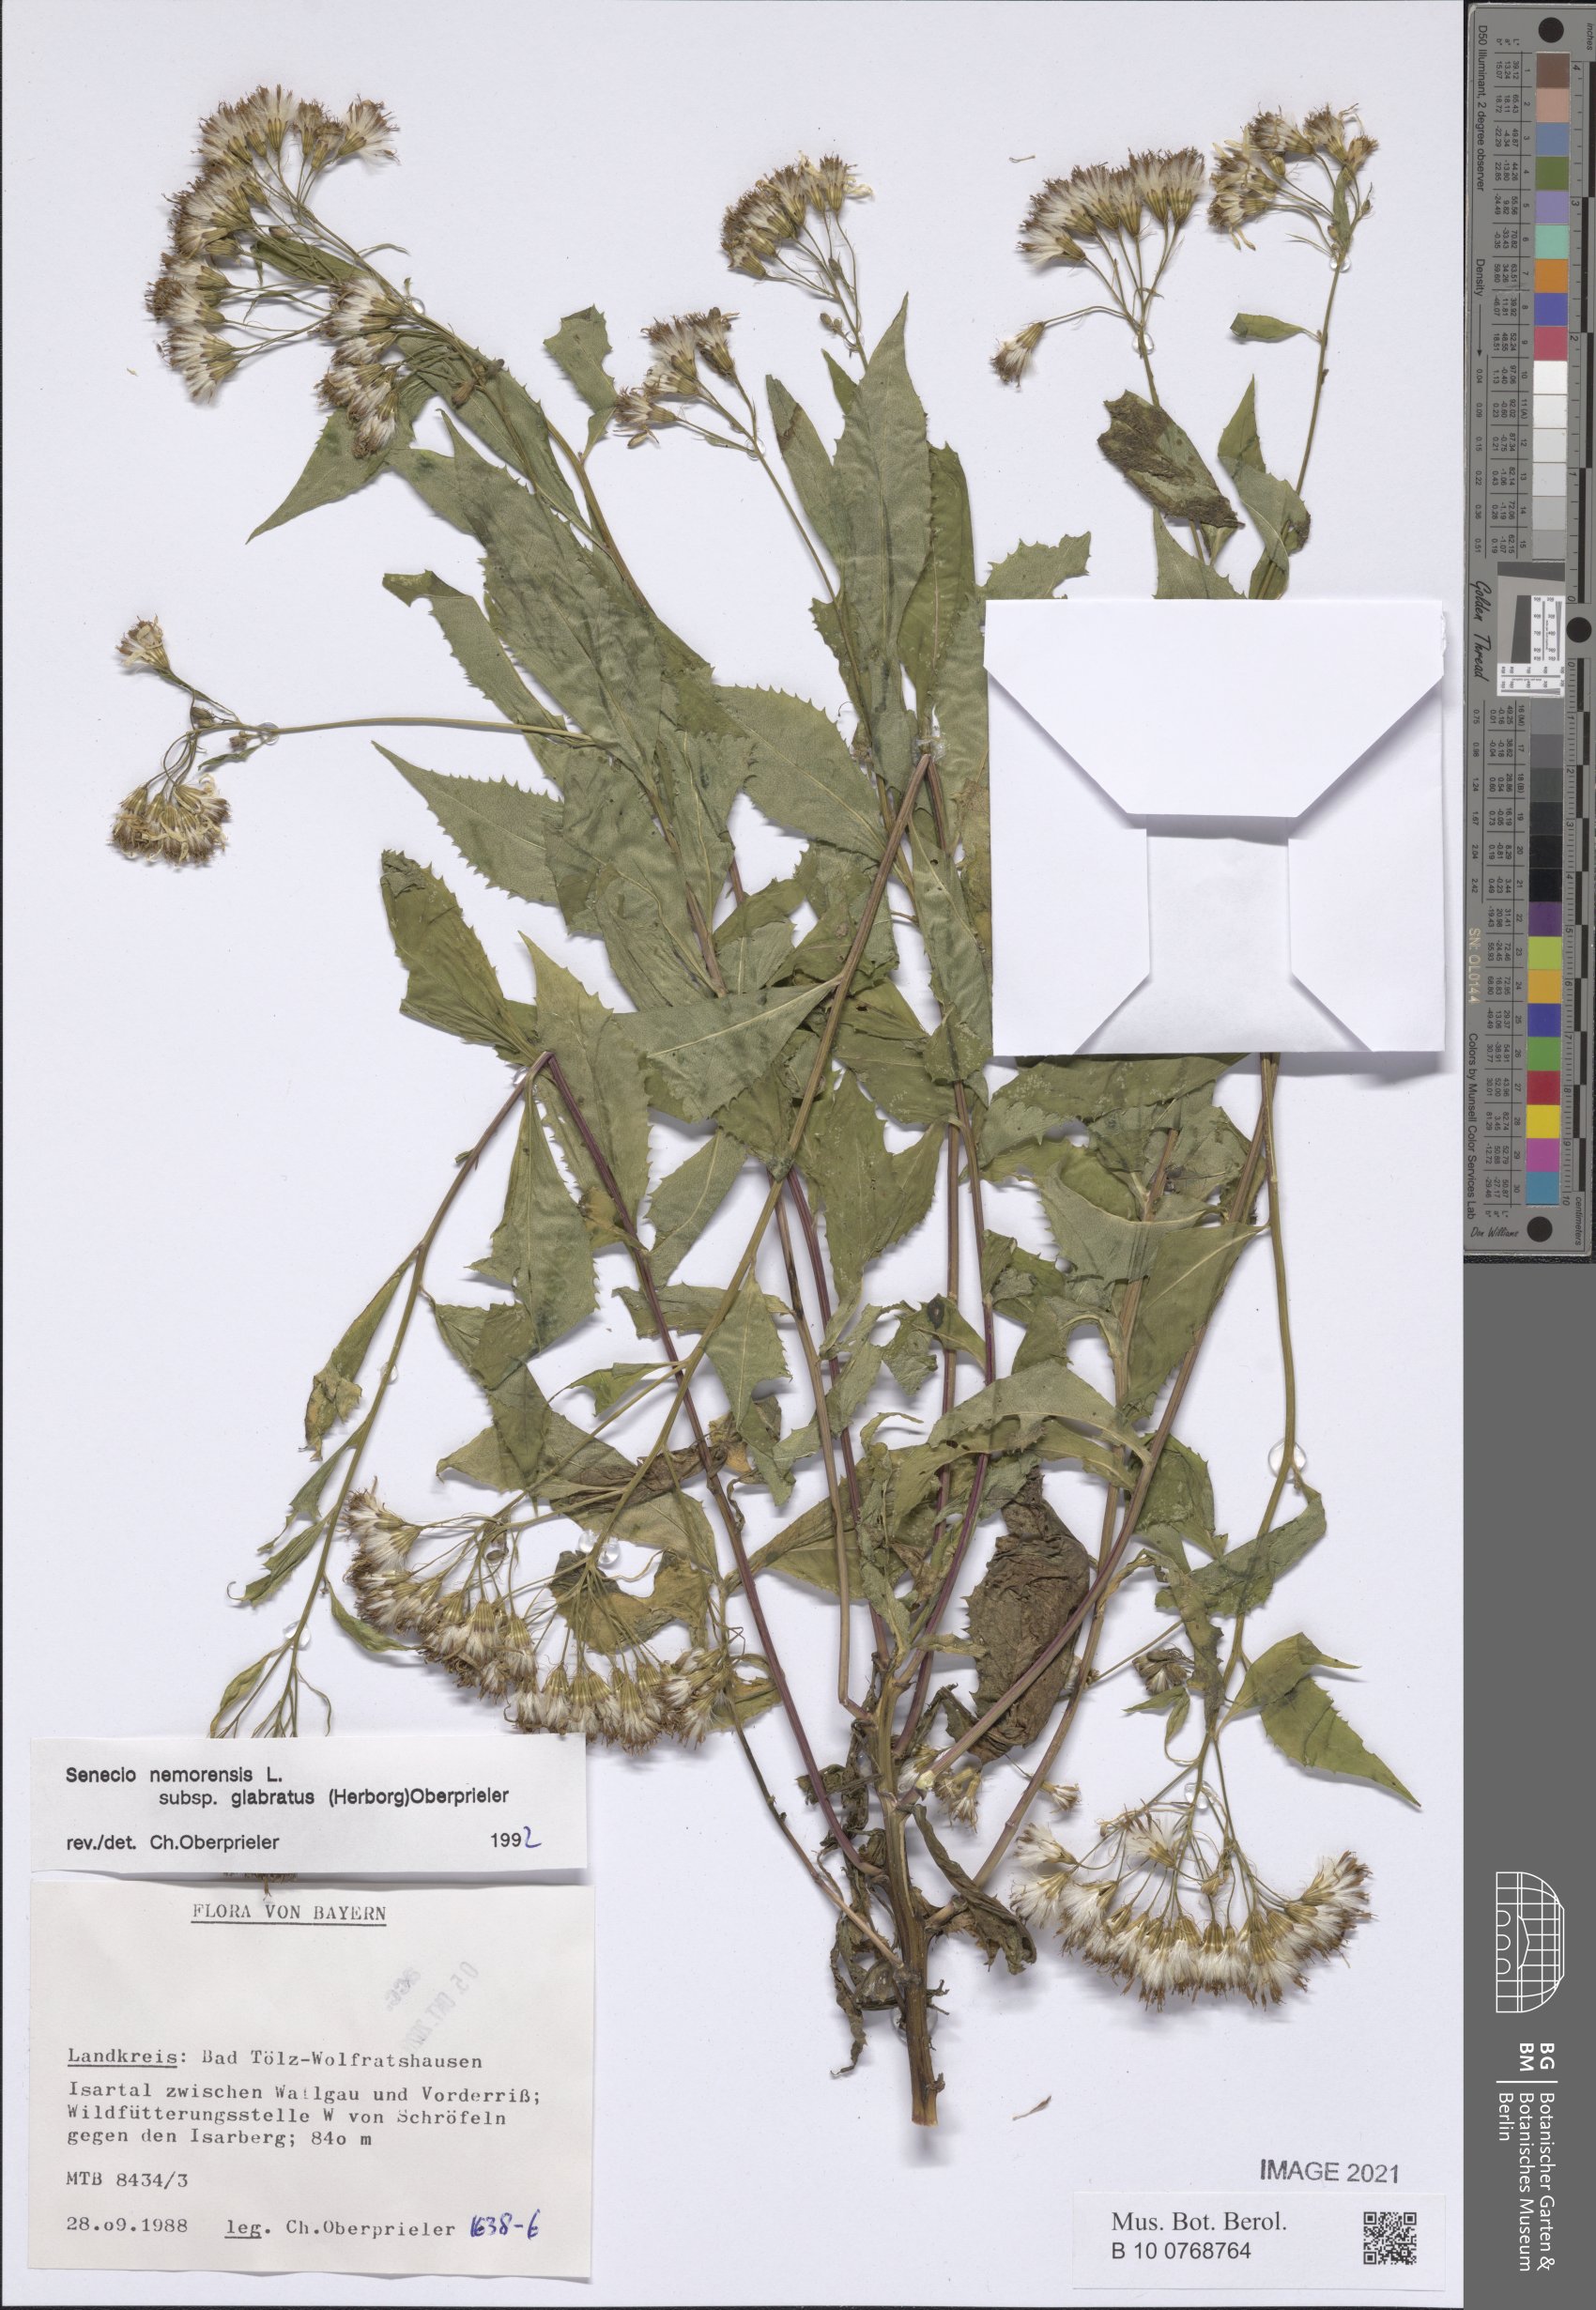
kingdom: Plantae
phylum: Tracheophyta
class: Magnoliopsida
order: Asterales
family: Asteraceae
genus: Senecio
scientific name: Senecio germanicus
